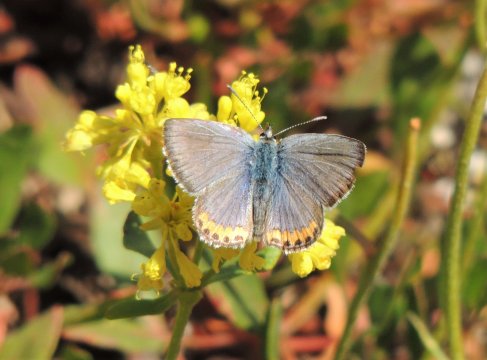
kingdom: Animalia
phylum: Arthropoda
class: Insecta
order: Lepidoptera
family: Lycaenidae
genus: Plebejus
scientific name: Plebejus lupini
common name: Lupine Blue
